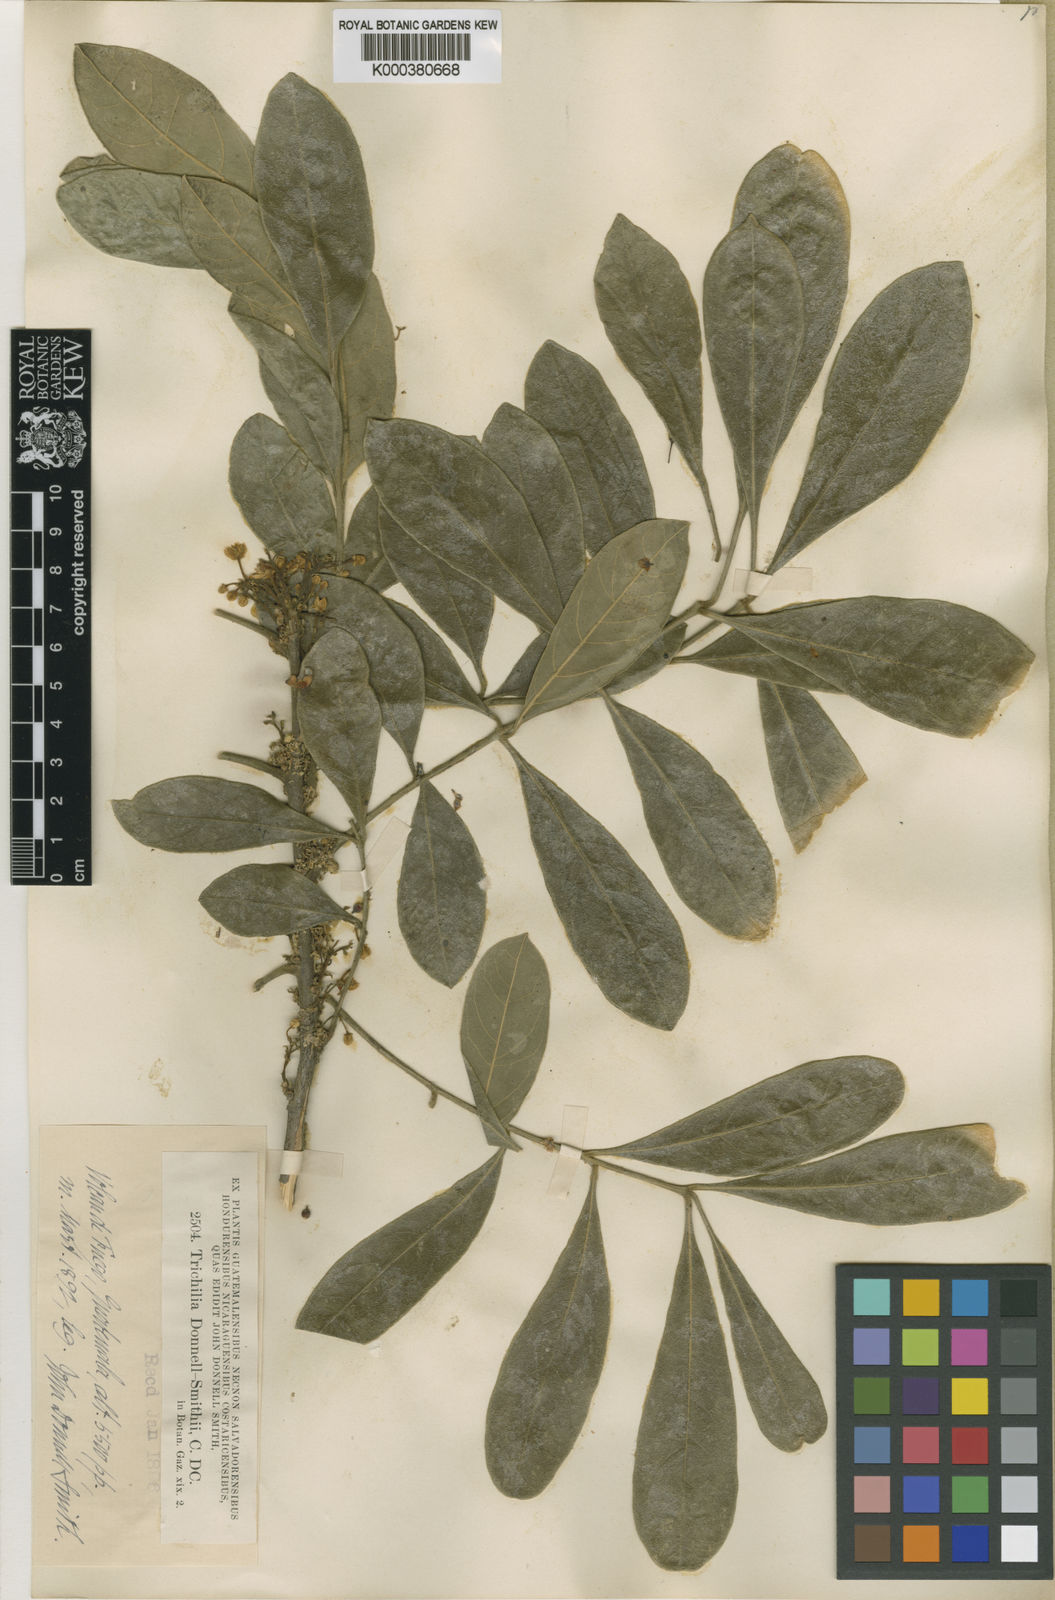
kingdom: Plantae
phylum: Tracheophyta
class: Magnoliopsida
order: Sapindales
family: Meliaceae
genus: Trichilia
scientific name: Trichilia havanensis
